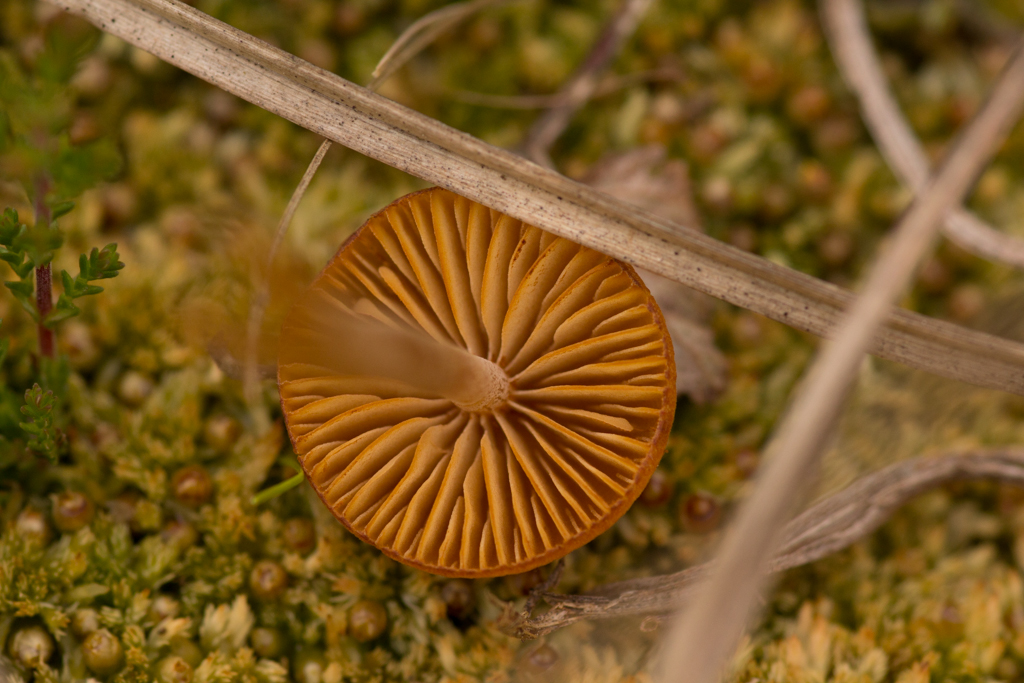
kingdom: Fungi
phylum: Basidiomycota
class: Agaricomycetes
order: Agaricales
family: Hymenogastraceae
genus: Galerina
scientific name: Galerina hybrida
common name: hængesæk-hjelmhat
